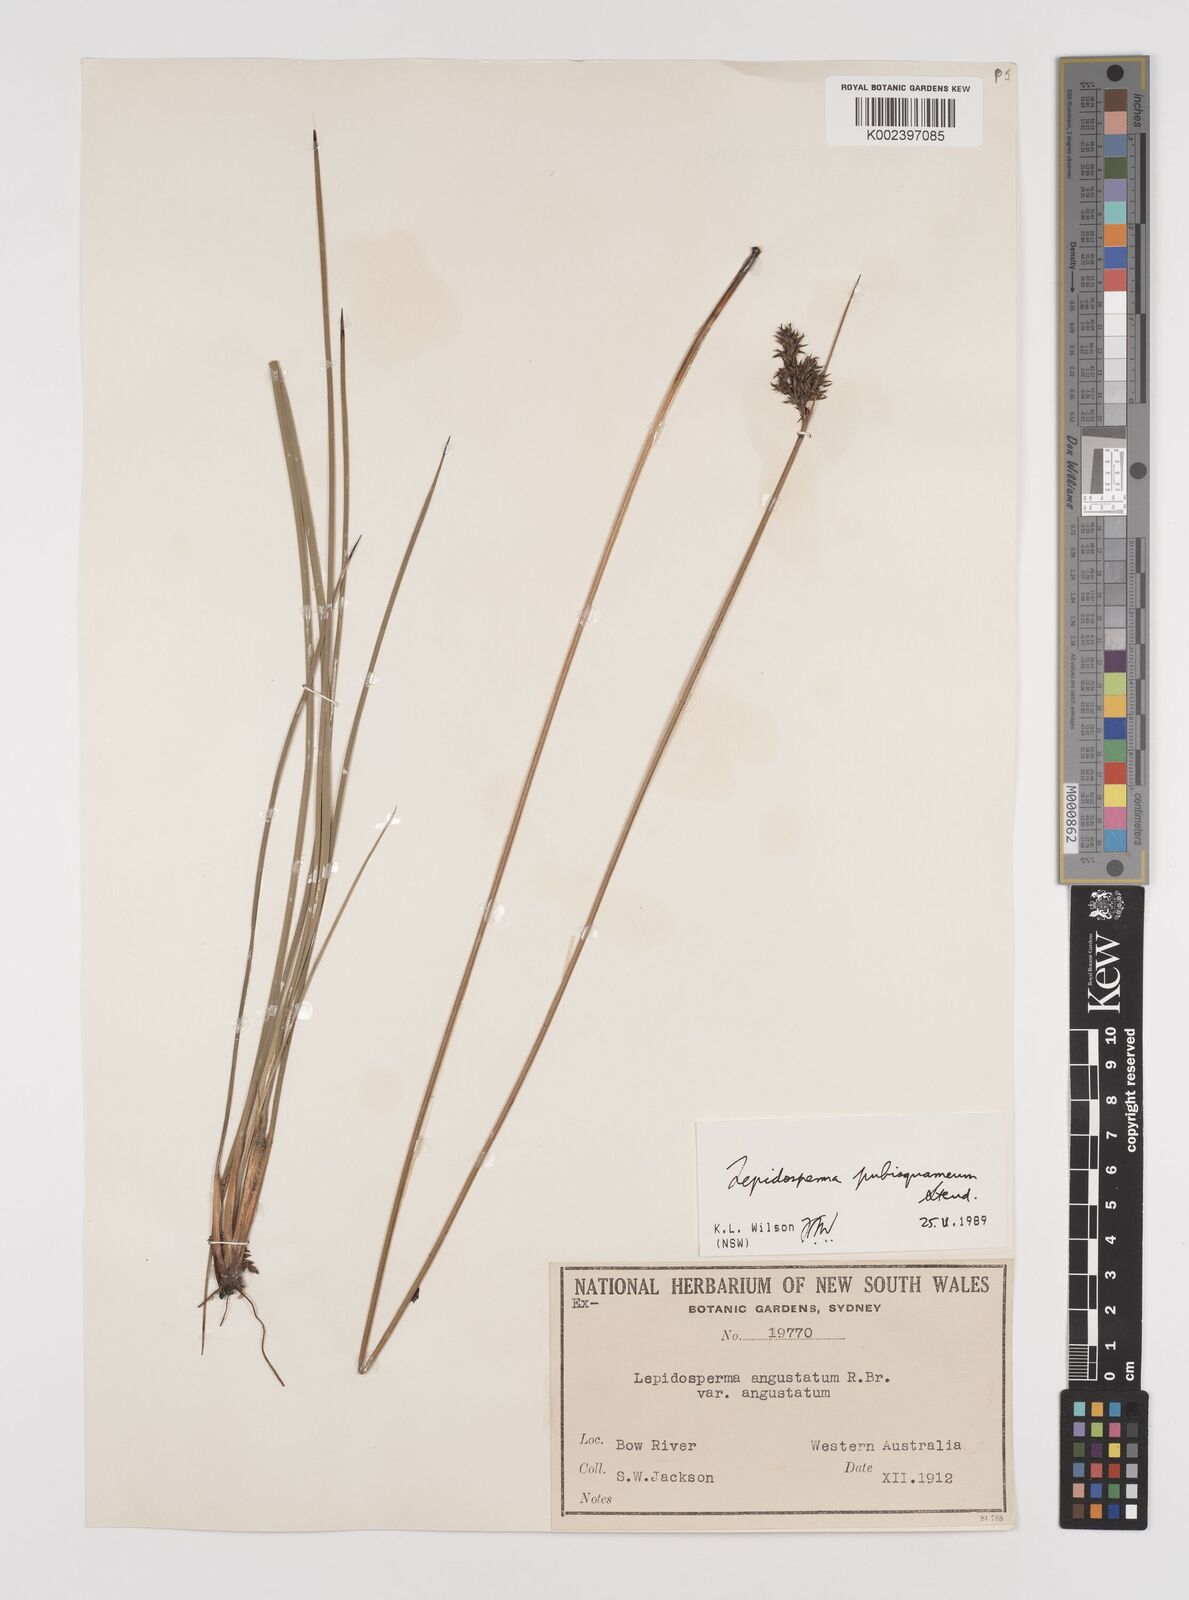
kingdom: Plantae
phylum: Tracheophyta
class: Liliopsida
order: Poales
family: Cyperaceae
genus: Lepidosperma
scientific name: Lepidosperma pubisquameum
